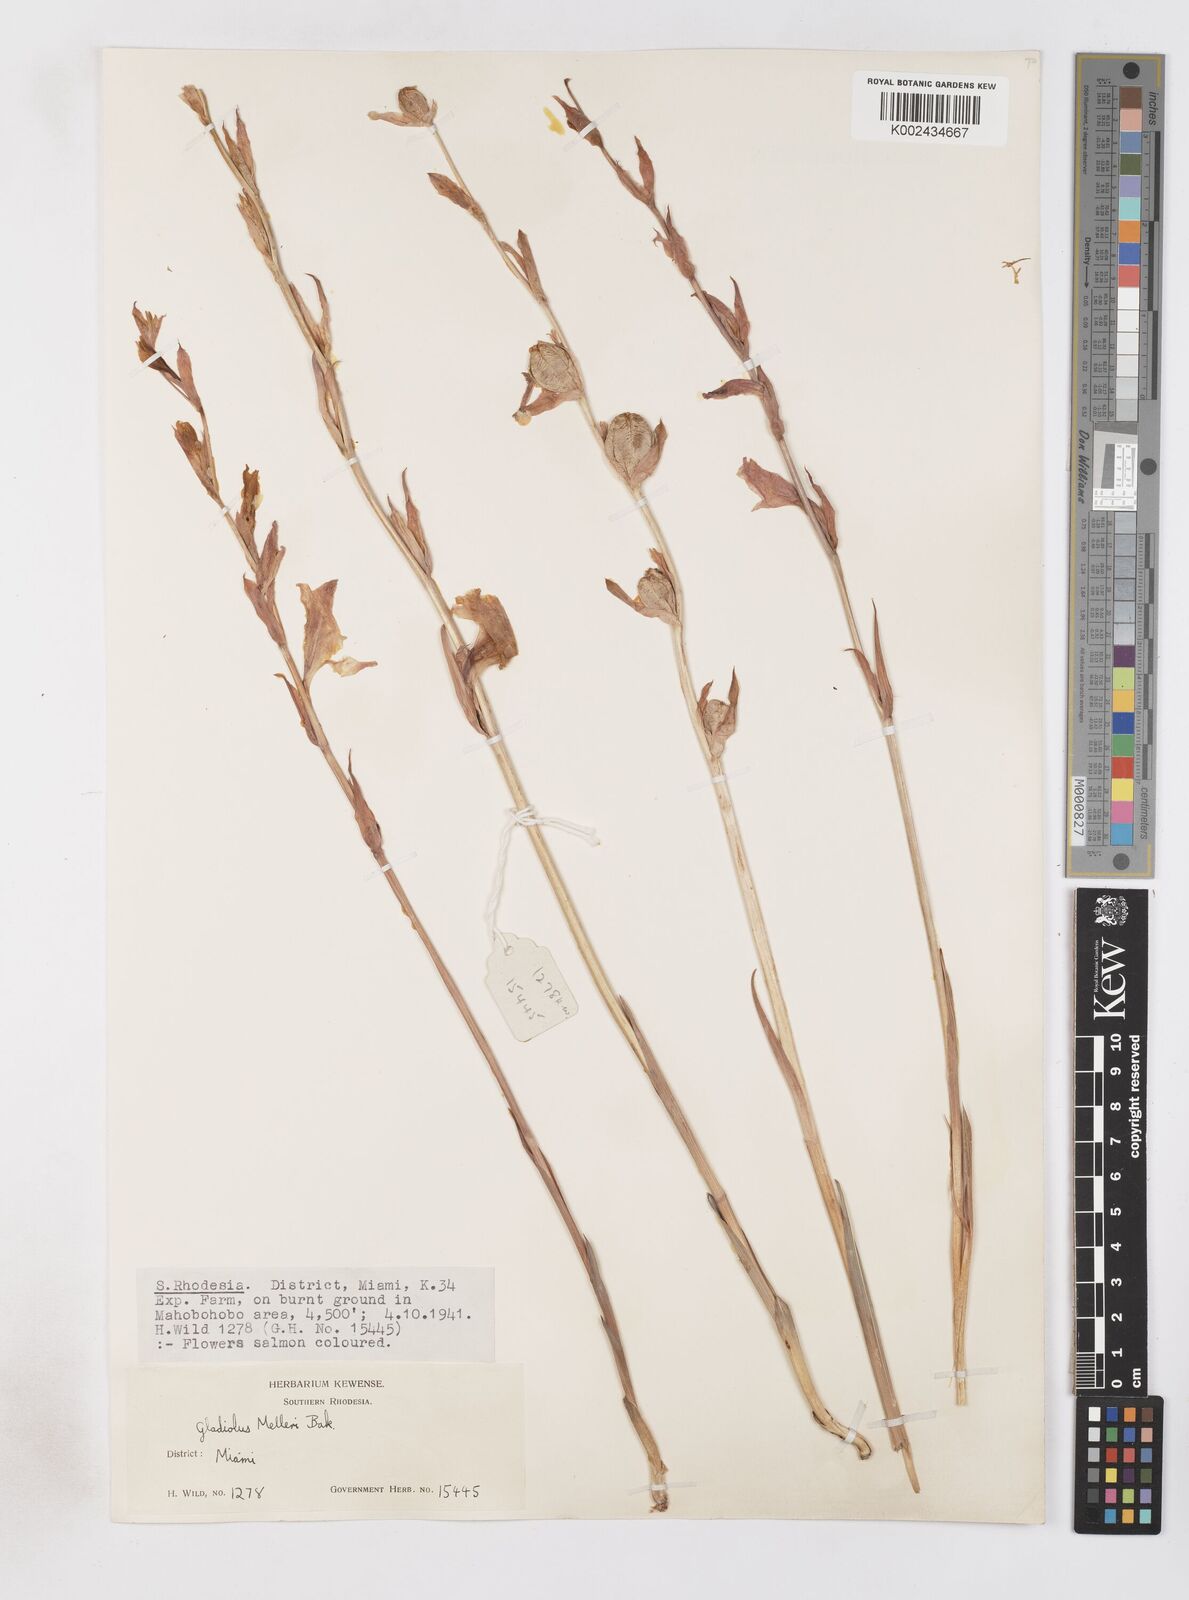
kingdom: Plantae
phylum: Tracheophyta
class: Liliopsida
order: Asparagales
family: Iridaceae
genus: Gladiolus
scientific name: Gladiolus melleri
